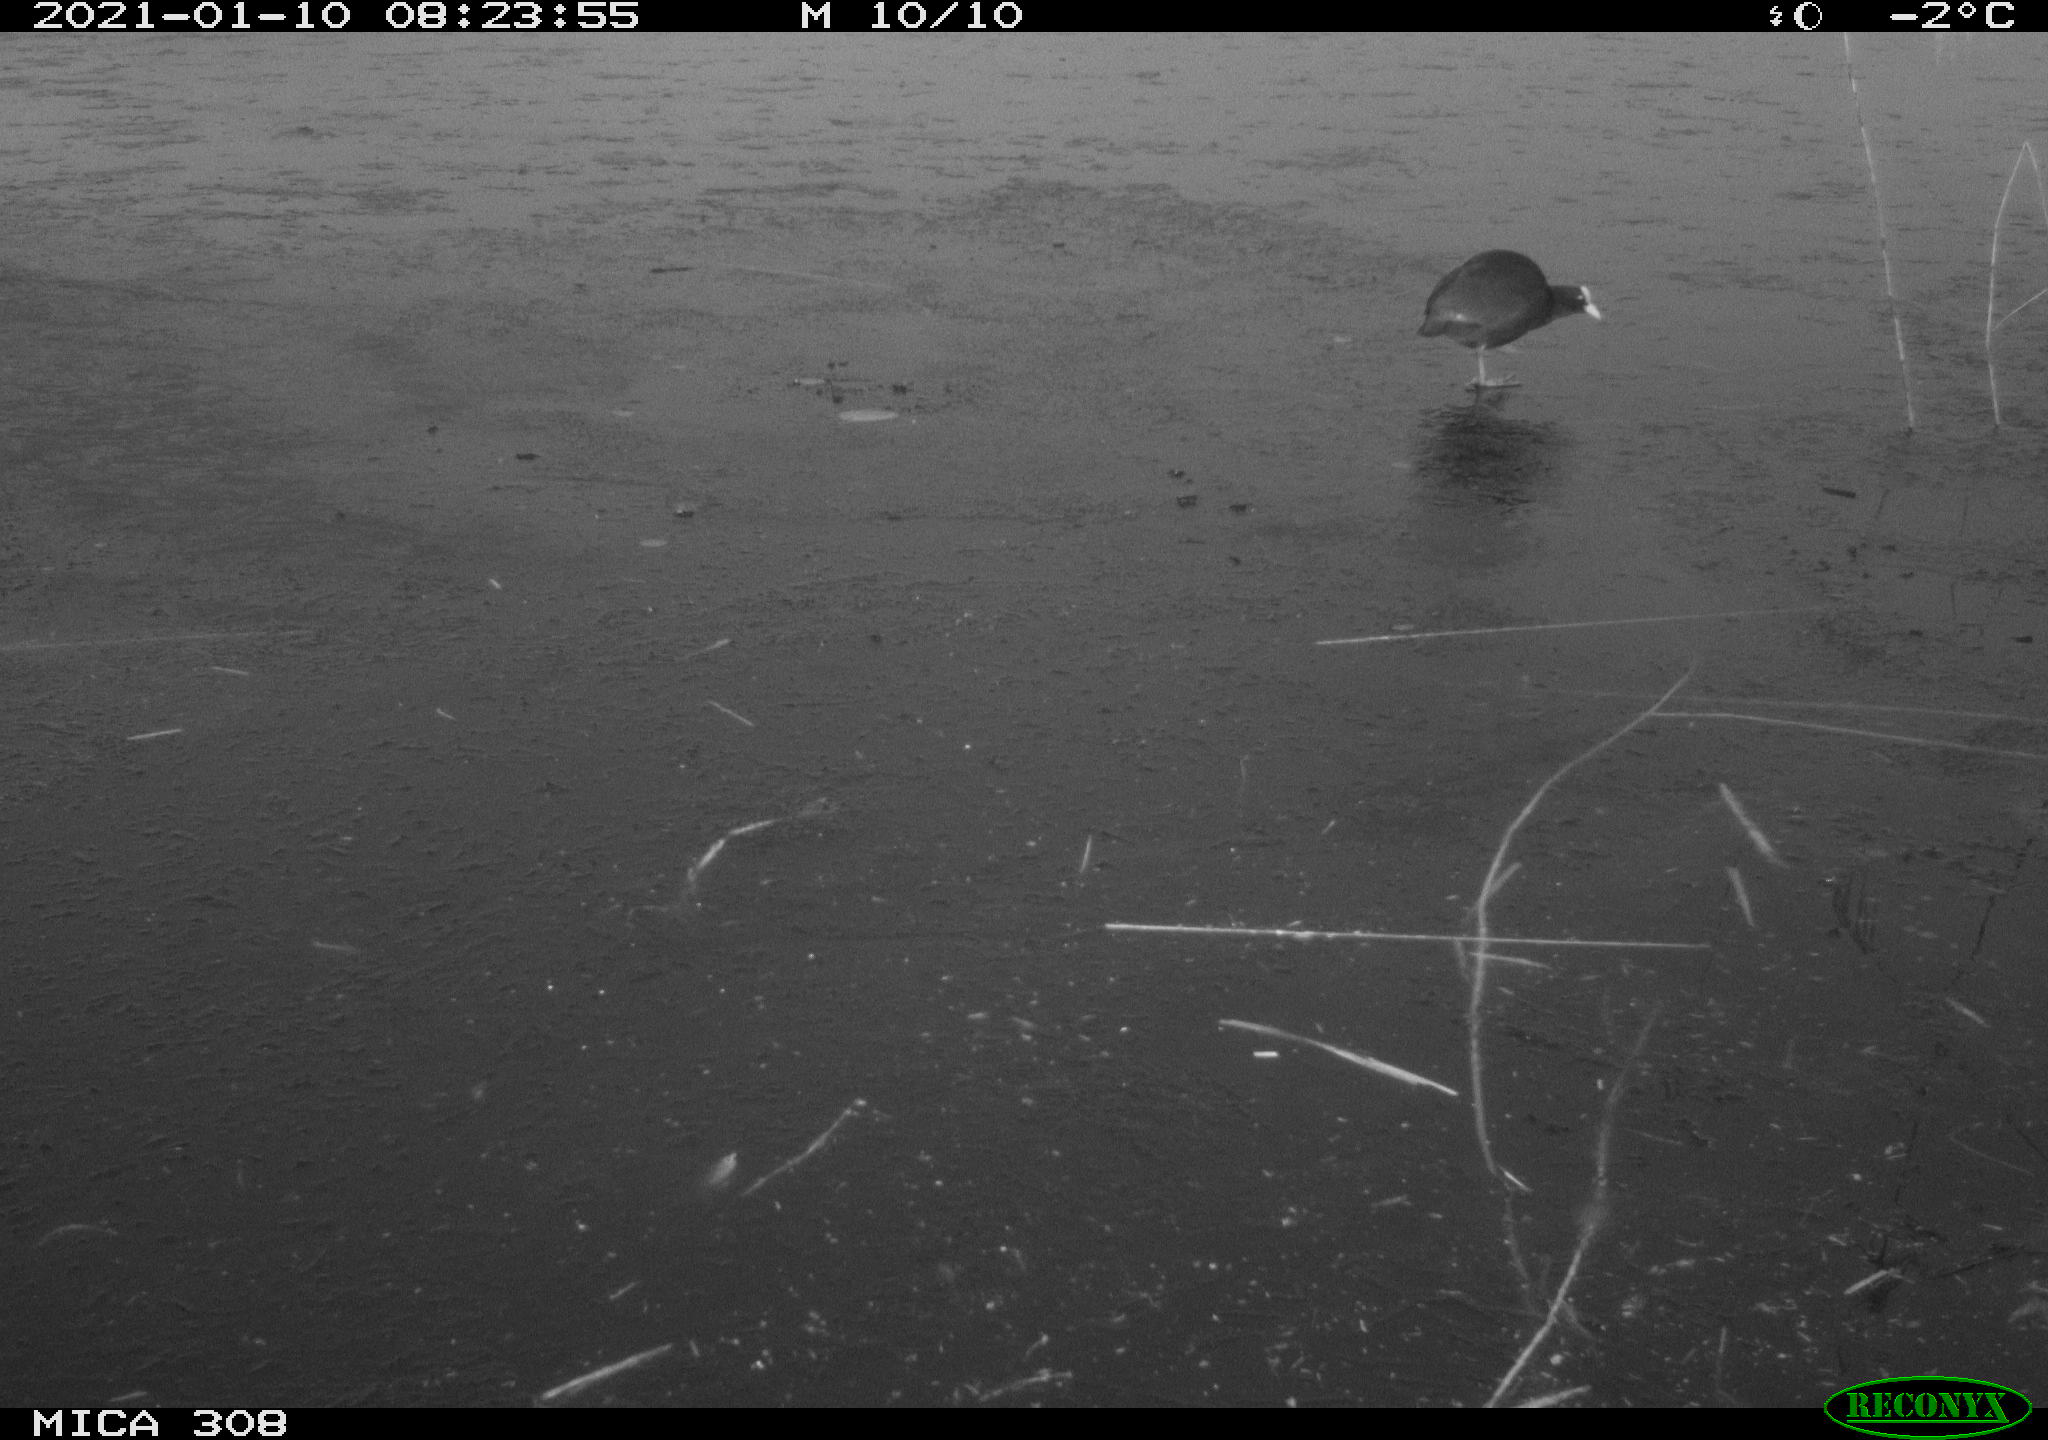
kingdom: Animalia
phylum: Chordata
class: Aves
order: Gruiformes
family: Rallidae
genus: Fulica
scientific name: Fulica atra
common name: Eurasian coot
